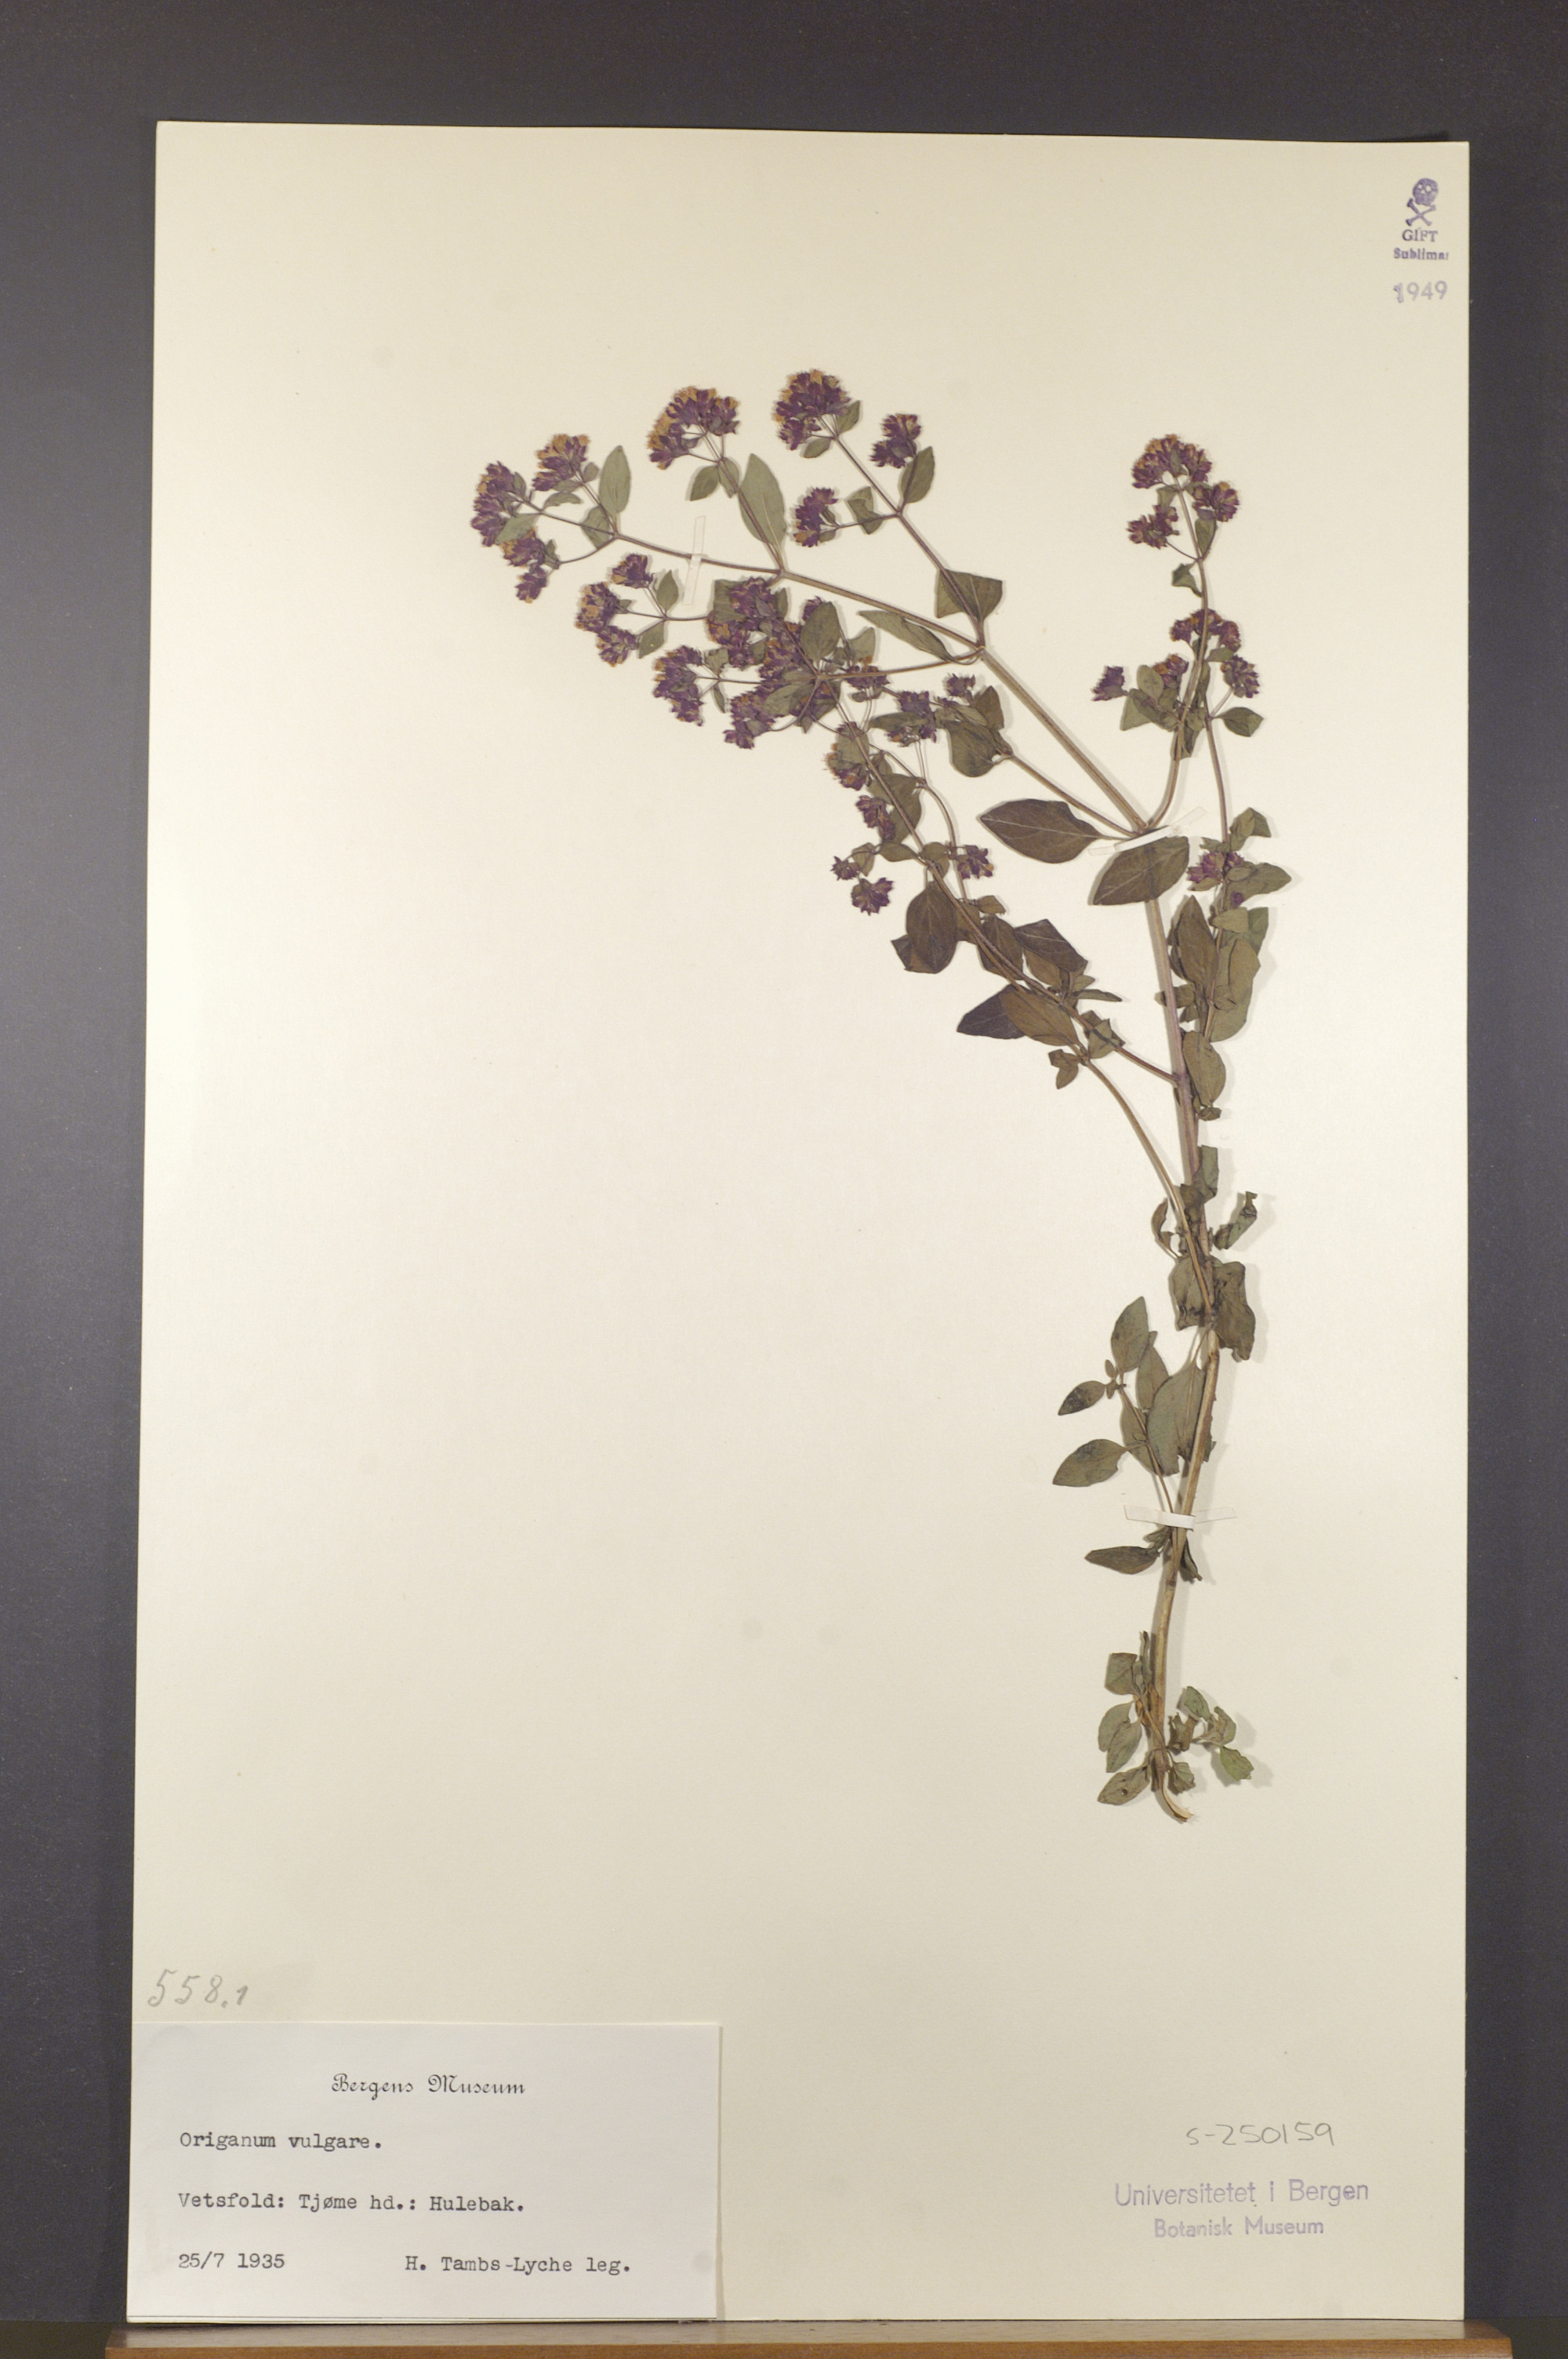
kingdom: Plantae
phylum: Tracheophyta
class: Magnoliopsida
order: Lamiales
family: Lamiaceae
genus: Origanum
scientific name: Origanum vulgare
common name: Wild marjoram
